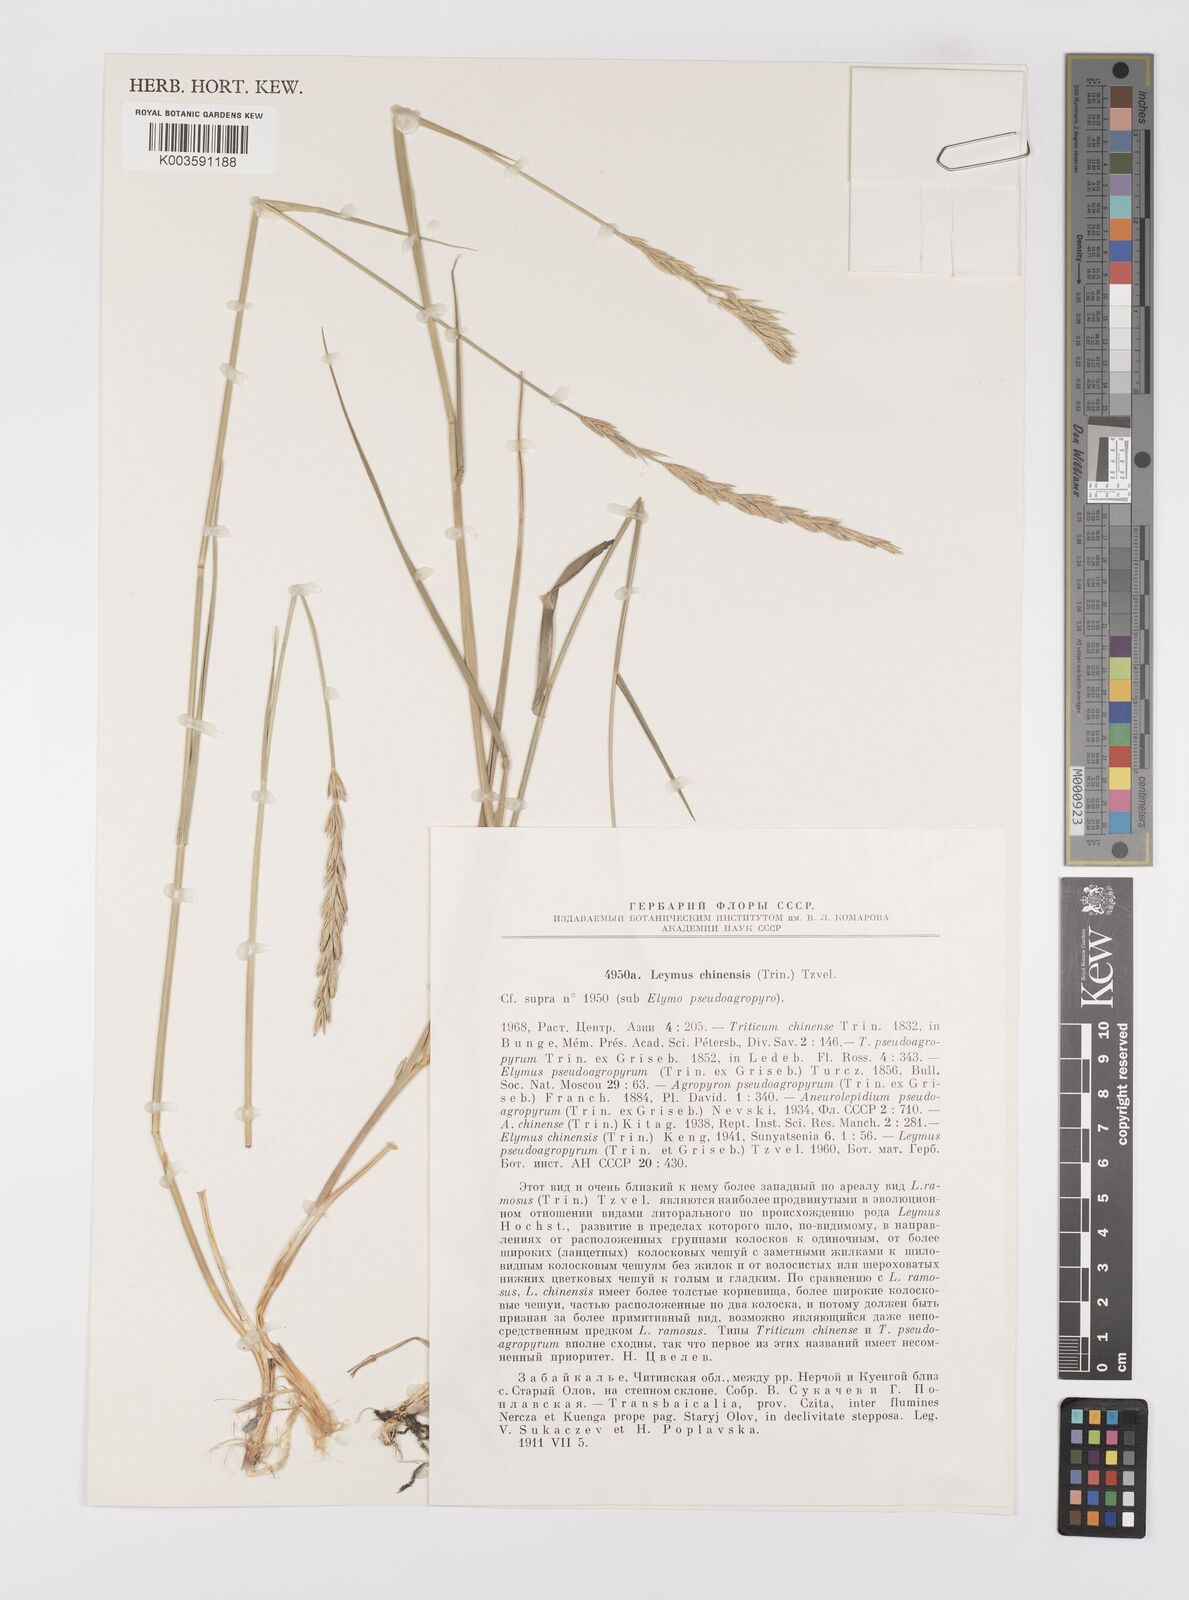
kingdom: Plantae
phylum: Tracheophyta
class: Liliopsida
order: Poales
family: Poaceae
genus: Leymus
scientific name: Leymus chinensis
